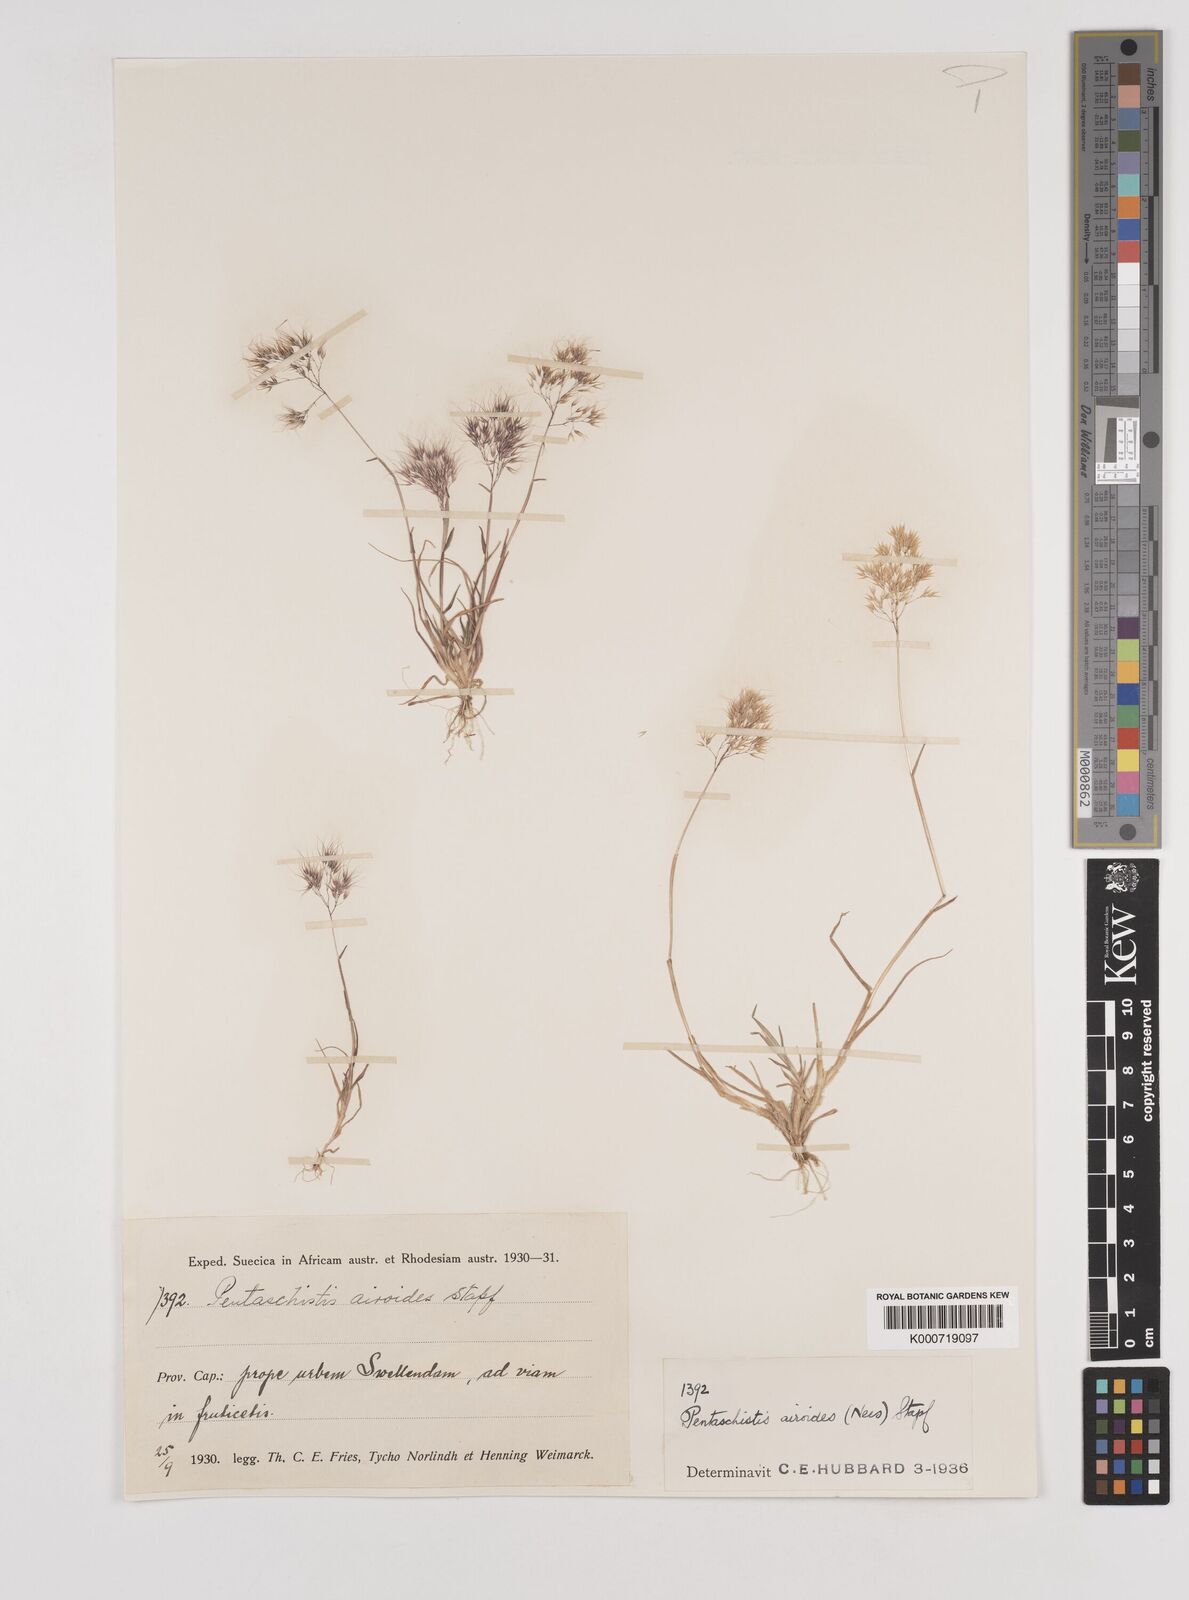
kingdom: Plantae
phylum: Tracheophyta
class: Liliopsida
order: Poales
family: Poaceae
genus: Pentameris
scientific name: Pentameris airoides
